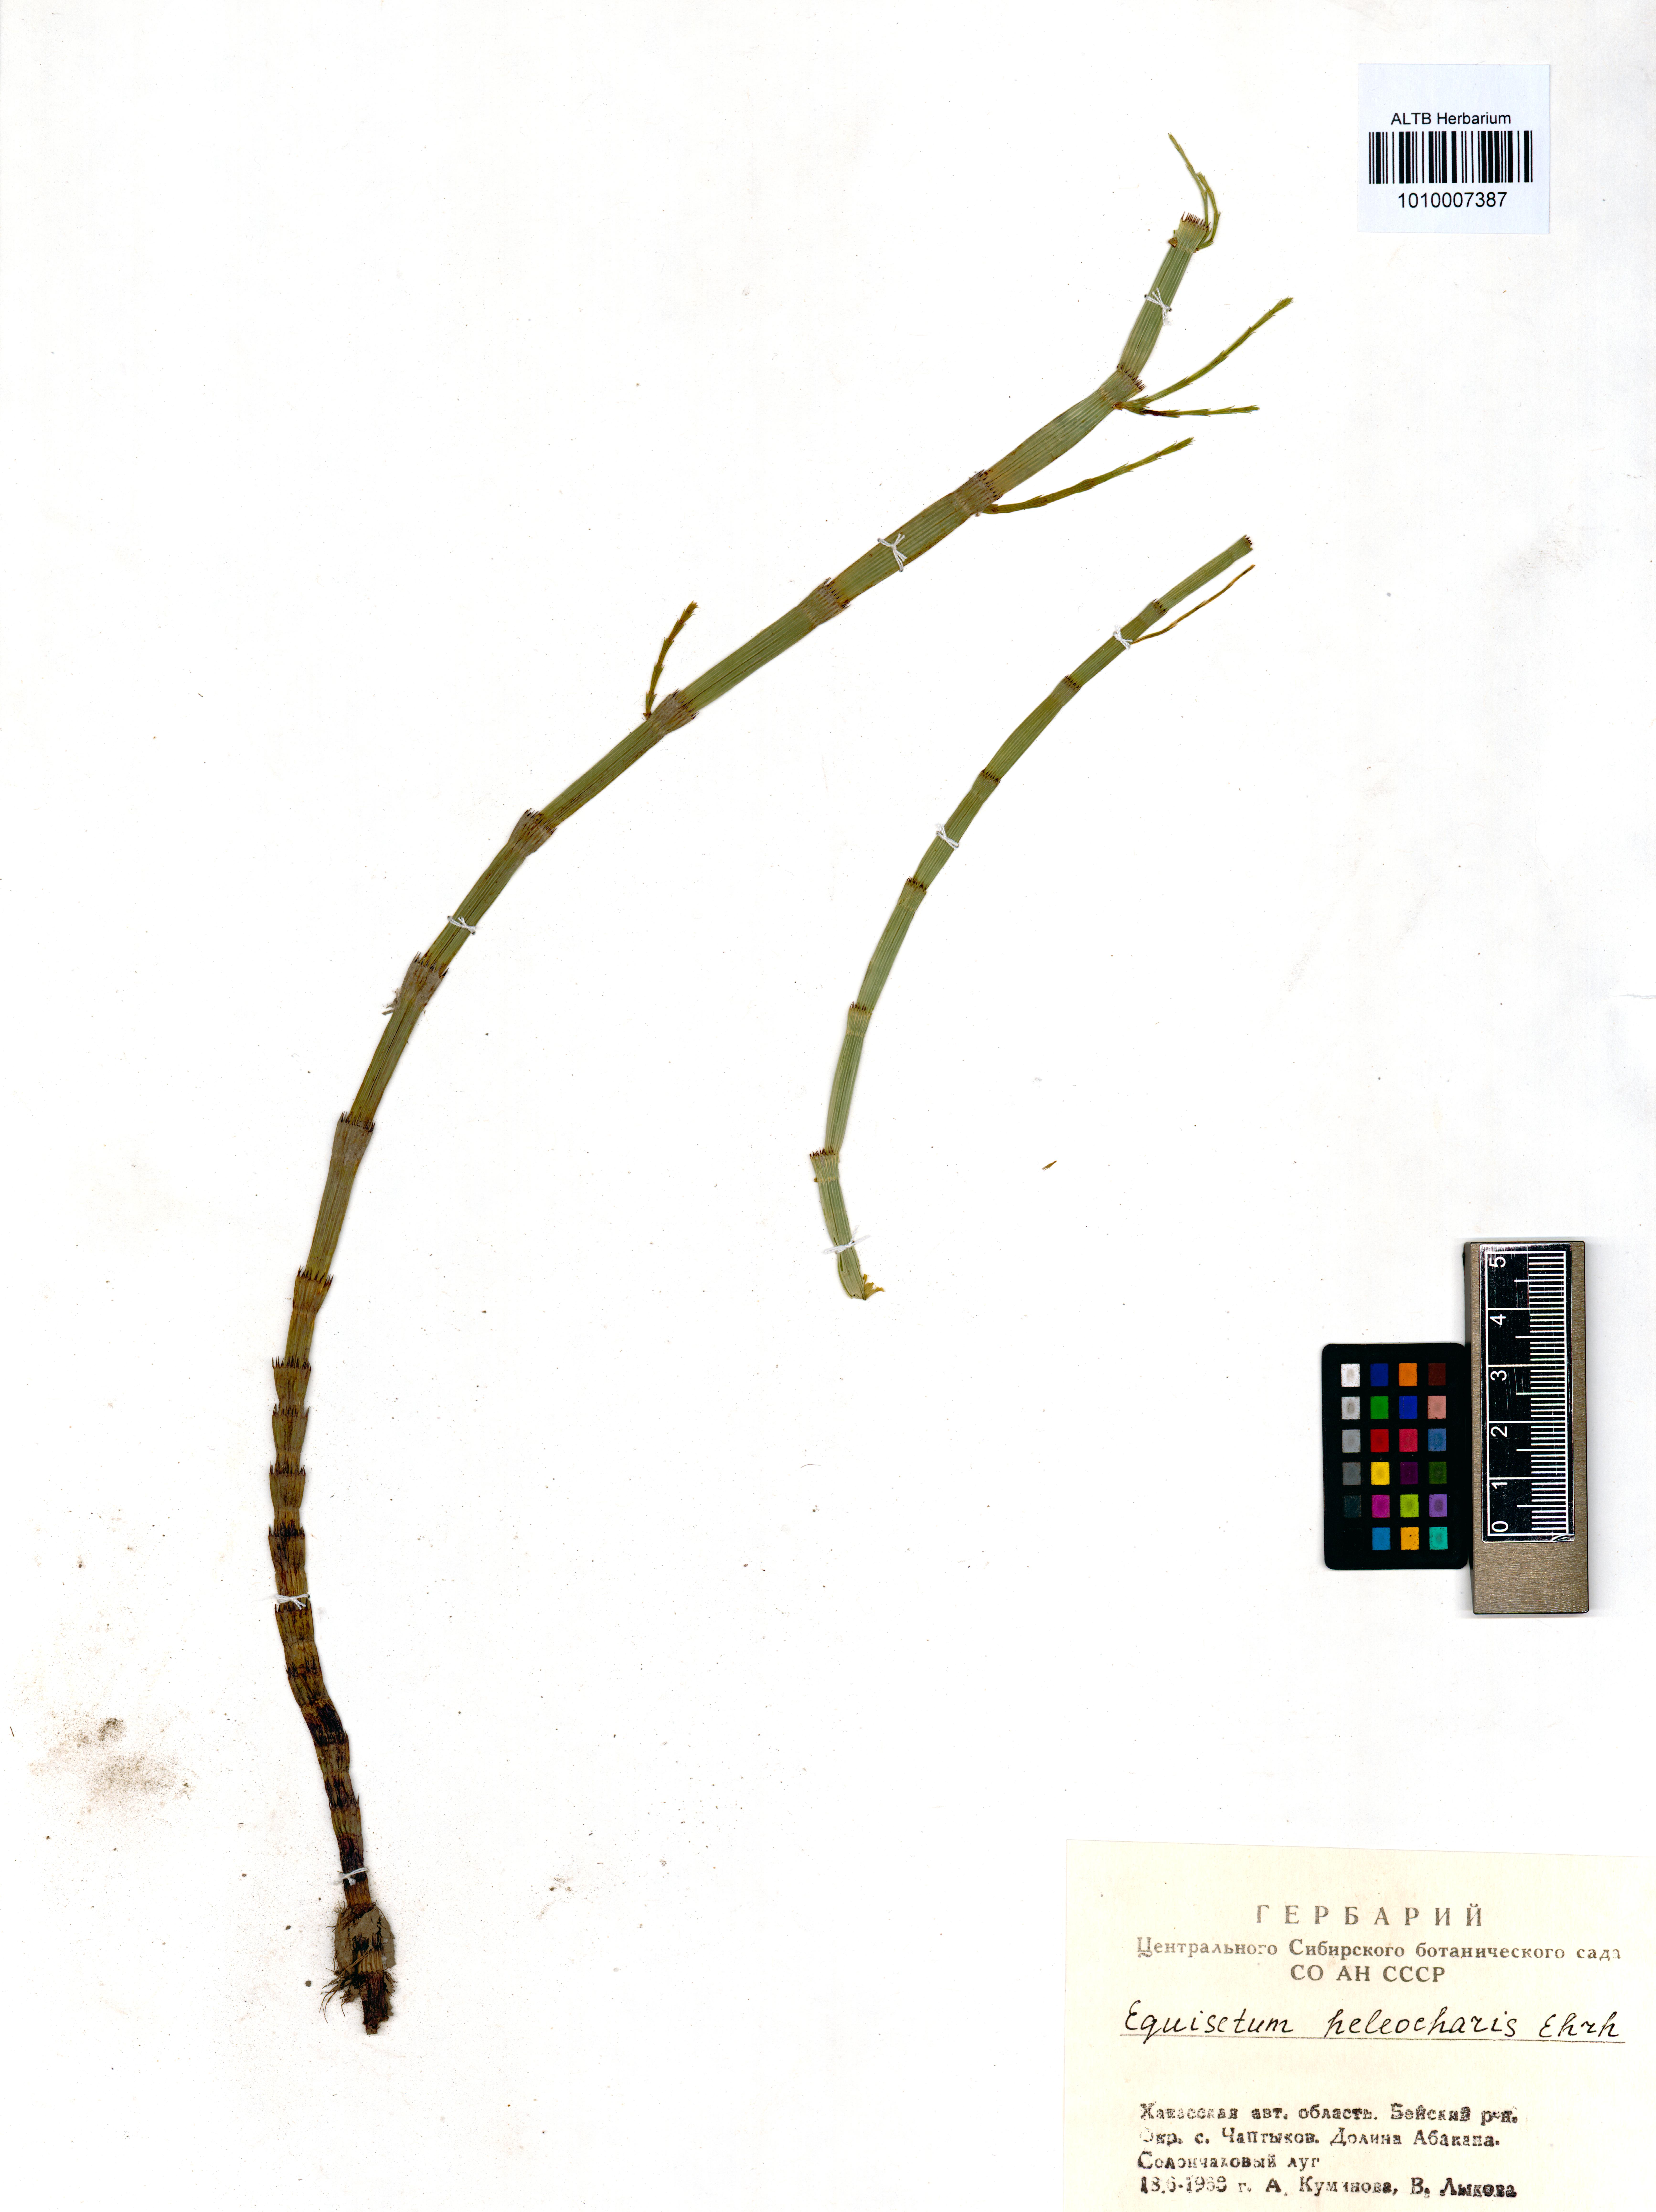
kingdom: Plantae
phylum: Tracheophyta
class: Polypodiopsida
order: Equisetales
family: Equisetaceae
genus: Equisetum
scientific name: Equisetum fluviatile
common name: Water horsetail
